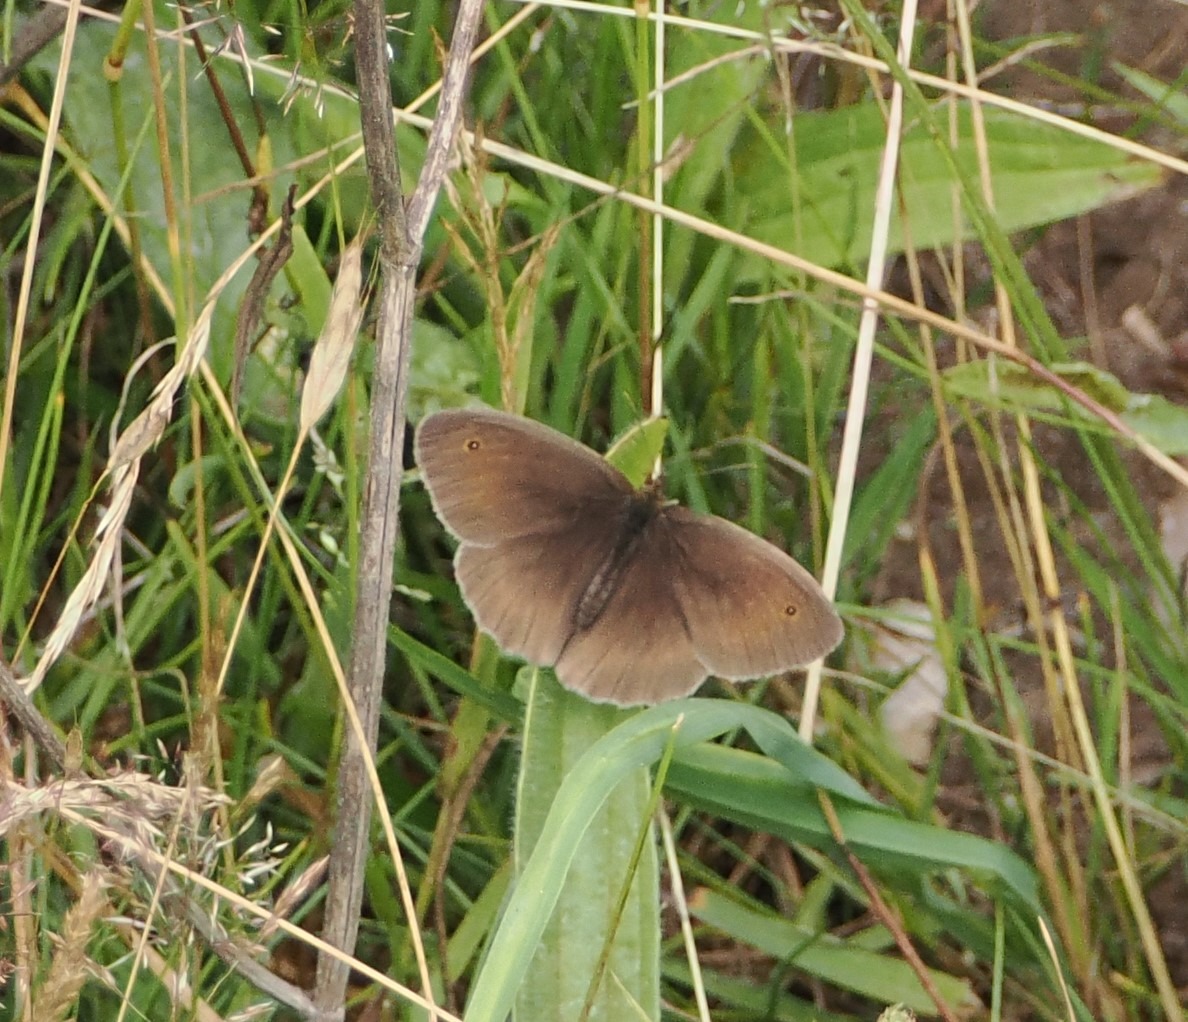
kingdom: Animalia
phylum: Arthropoda
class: Insecta
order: Lepidoptera
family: Nymphalidae
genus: Maniola
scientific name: Maniola jurtina
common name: Græsrandøje
